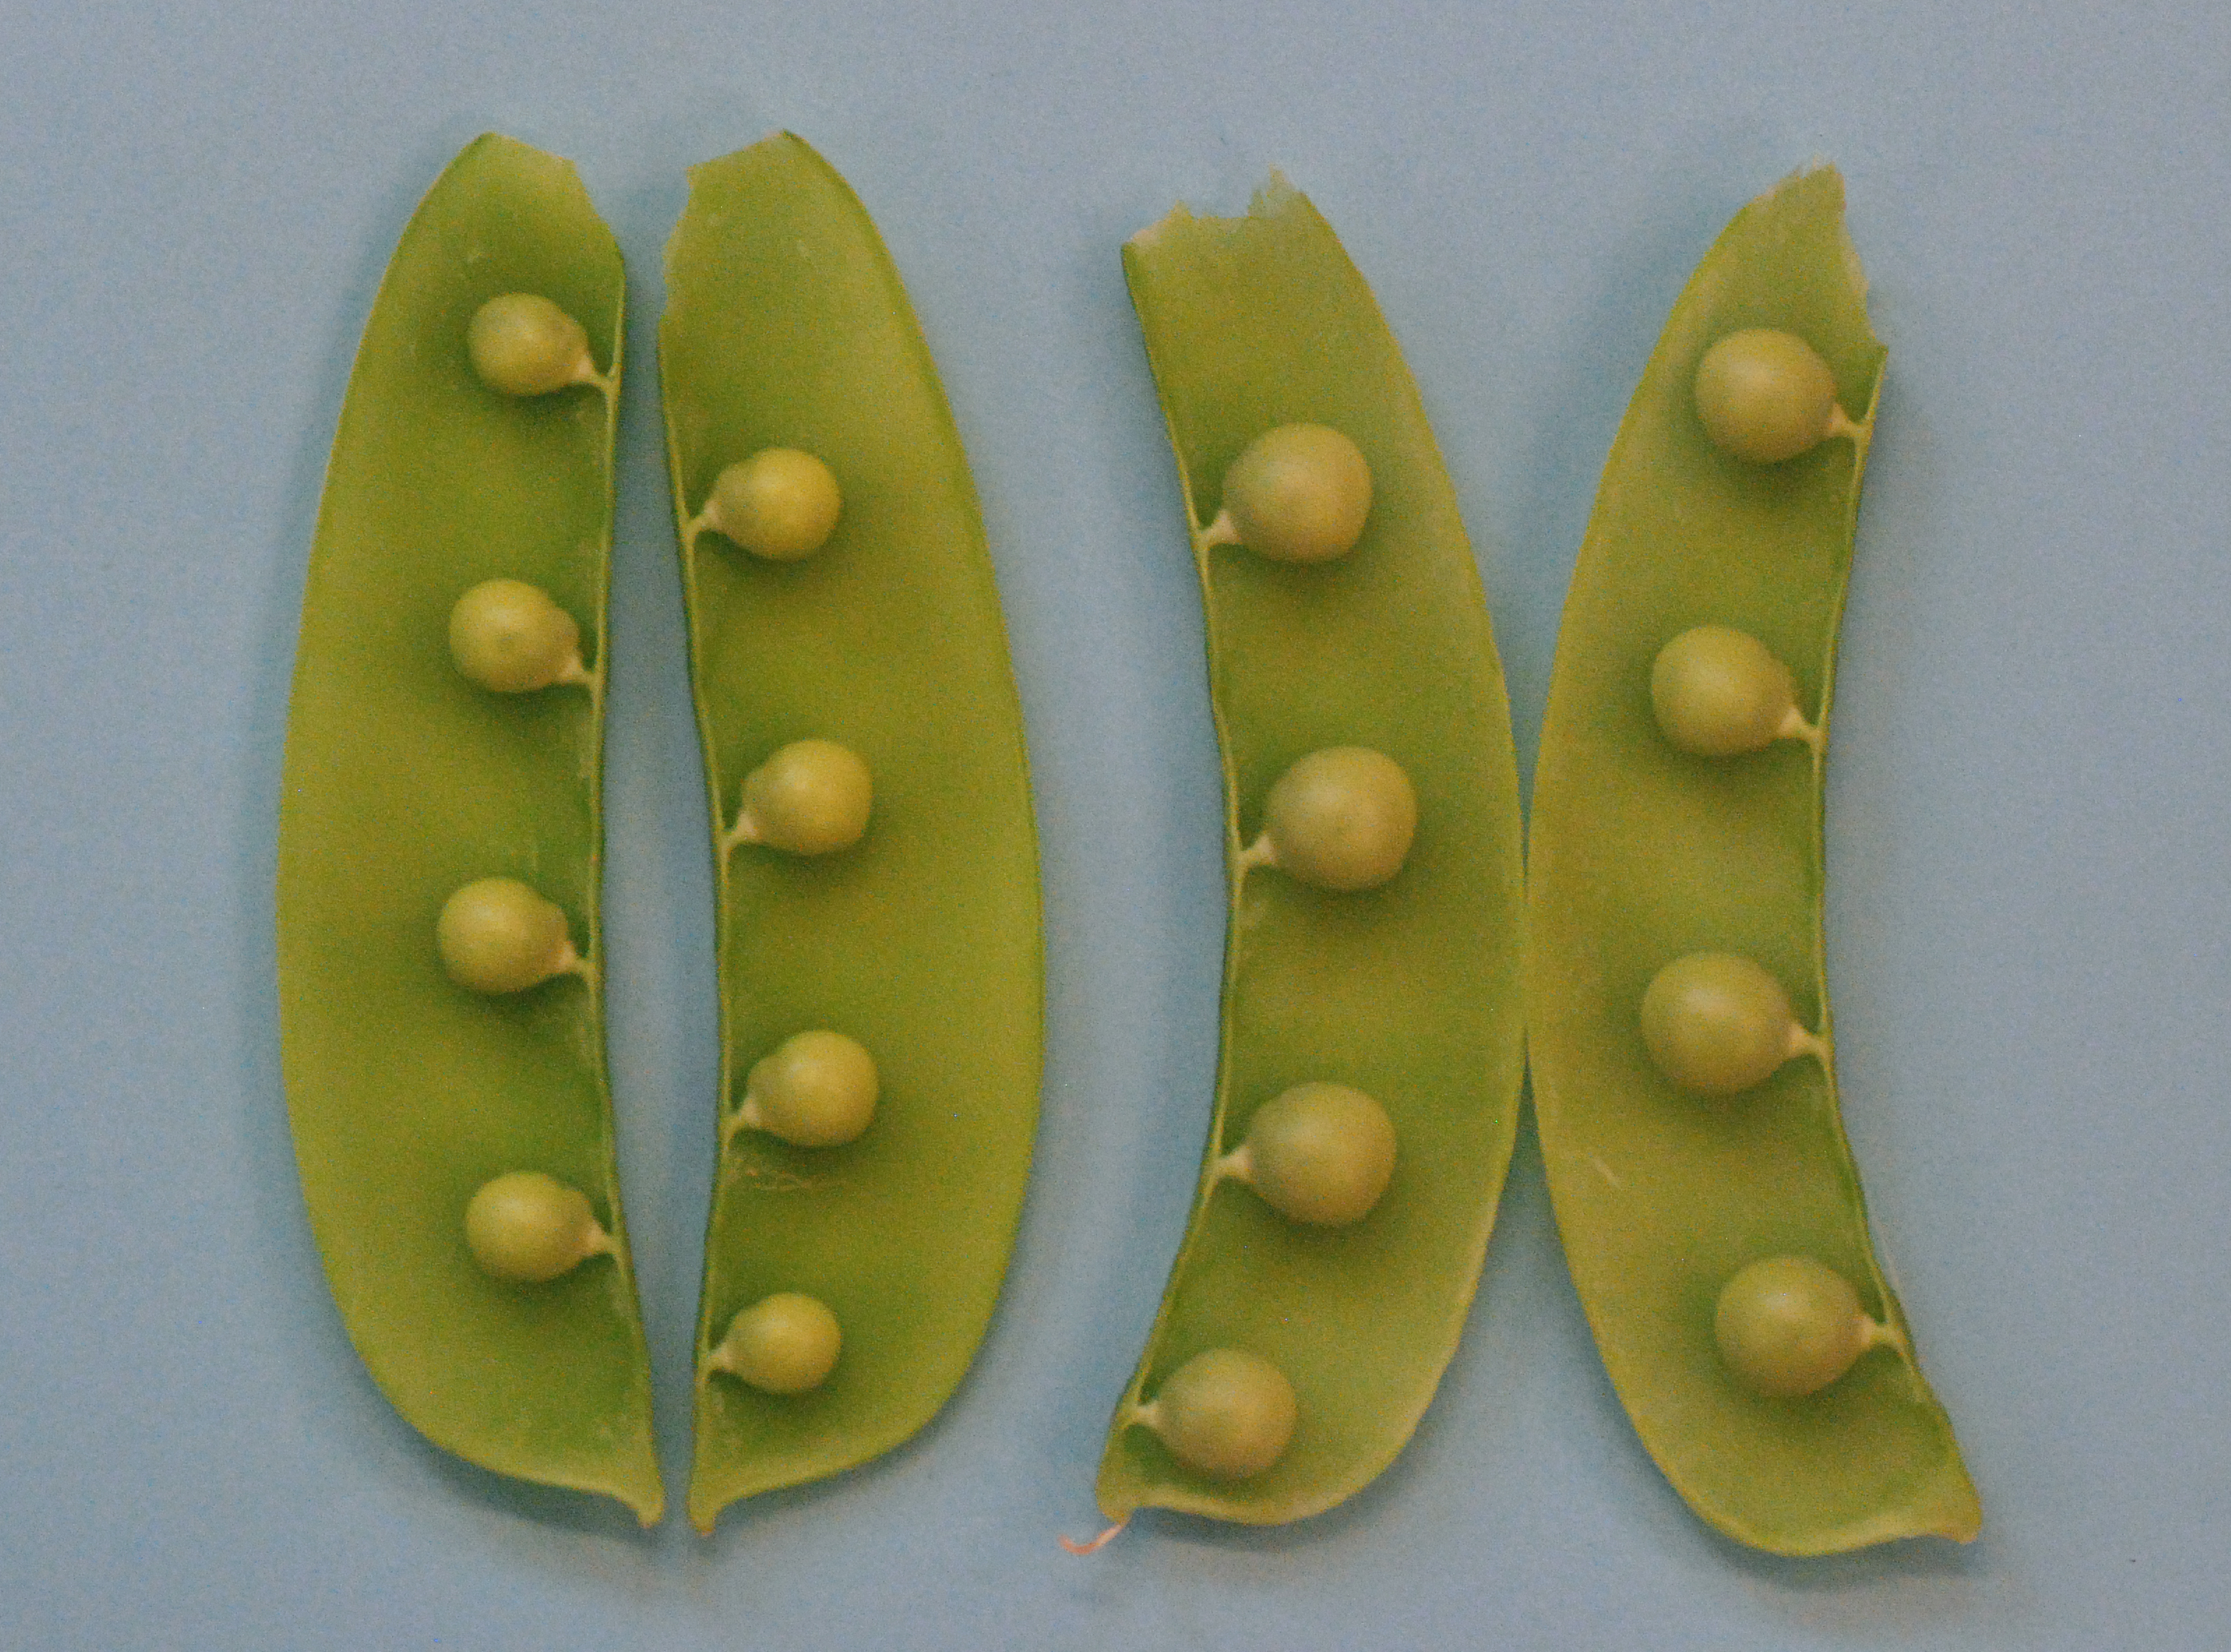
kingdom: Plantae
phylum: Tracheophyta
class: Magnoliopsida
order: Fabales
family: Fabaceae
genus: Lathyrus
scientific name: Lathyrus oleraceus
